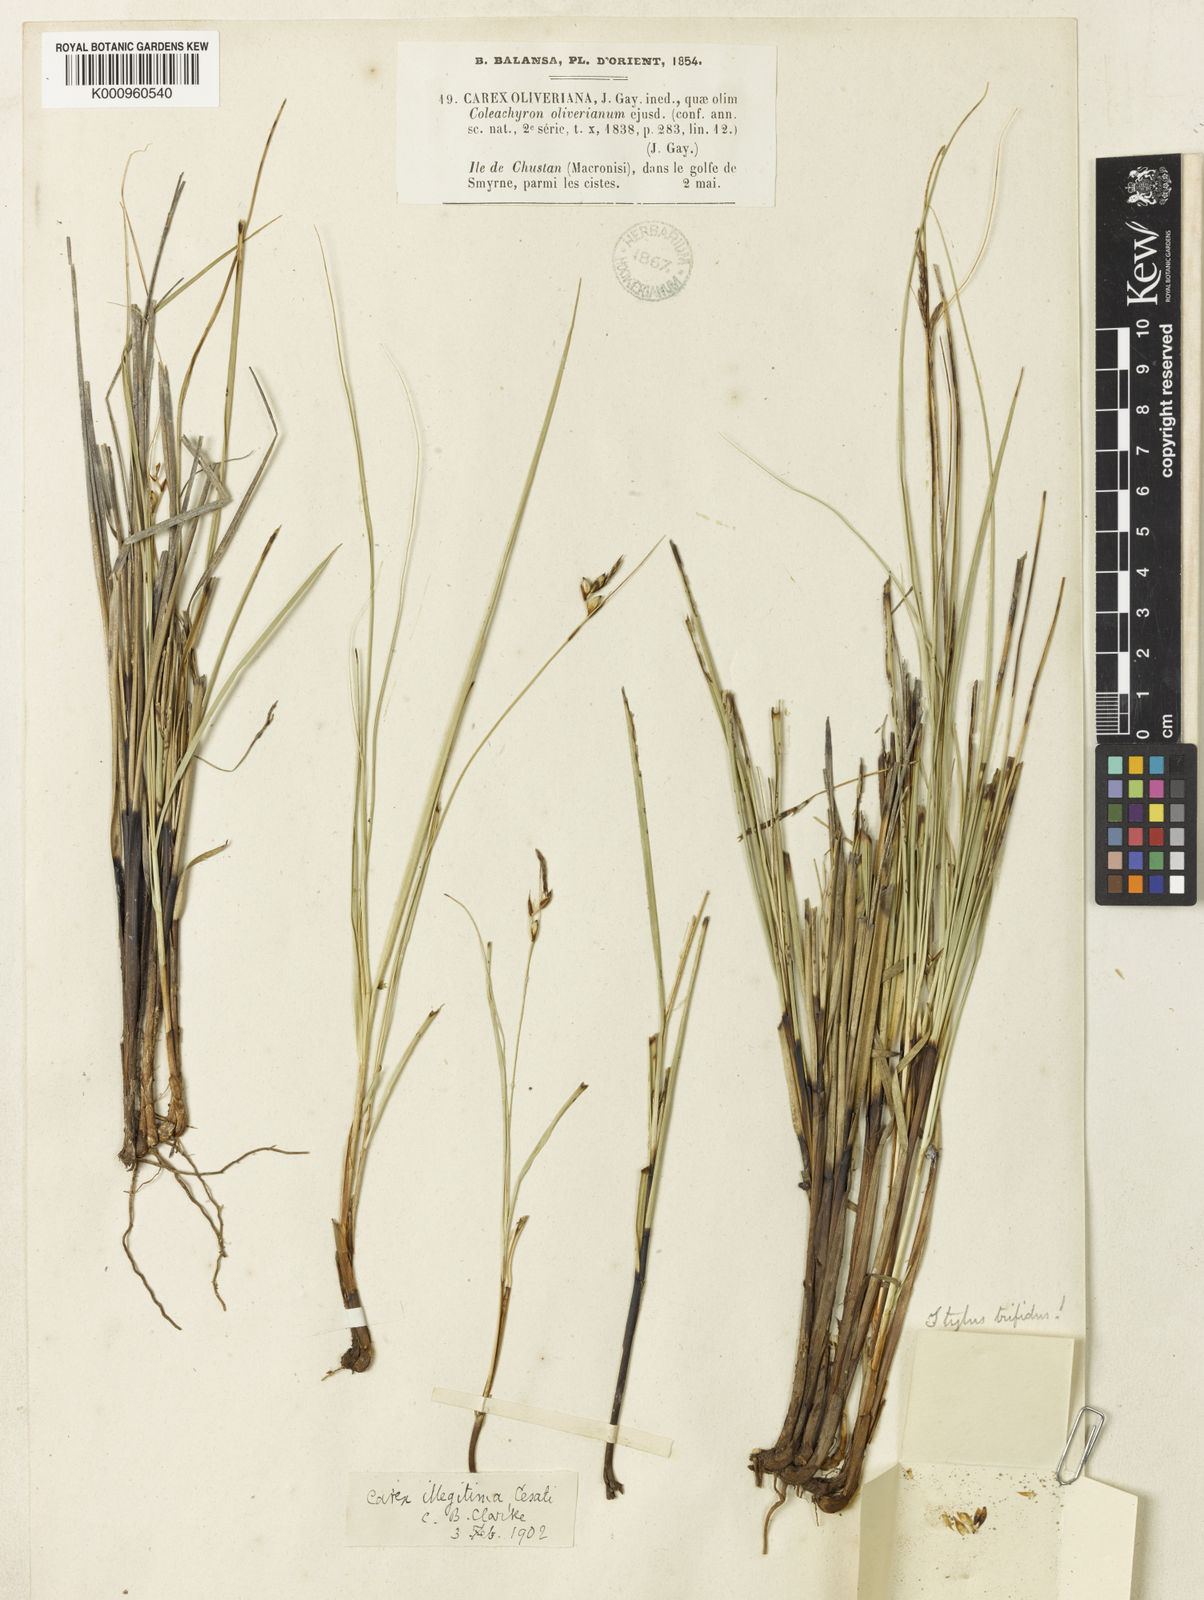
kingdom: Plantae
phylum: Tracheophyta
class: Liliopsida
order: Poales
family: Cyperaceae
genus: Carex
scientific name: Carex illegitima
